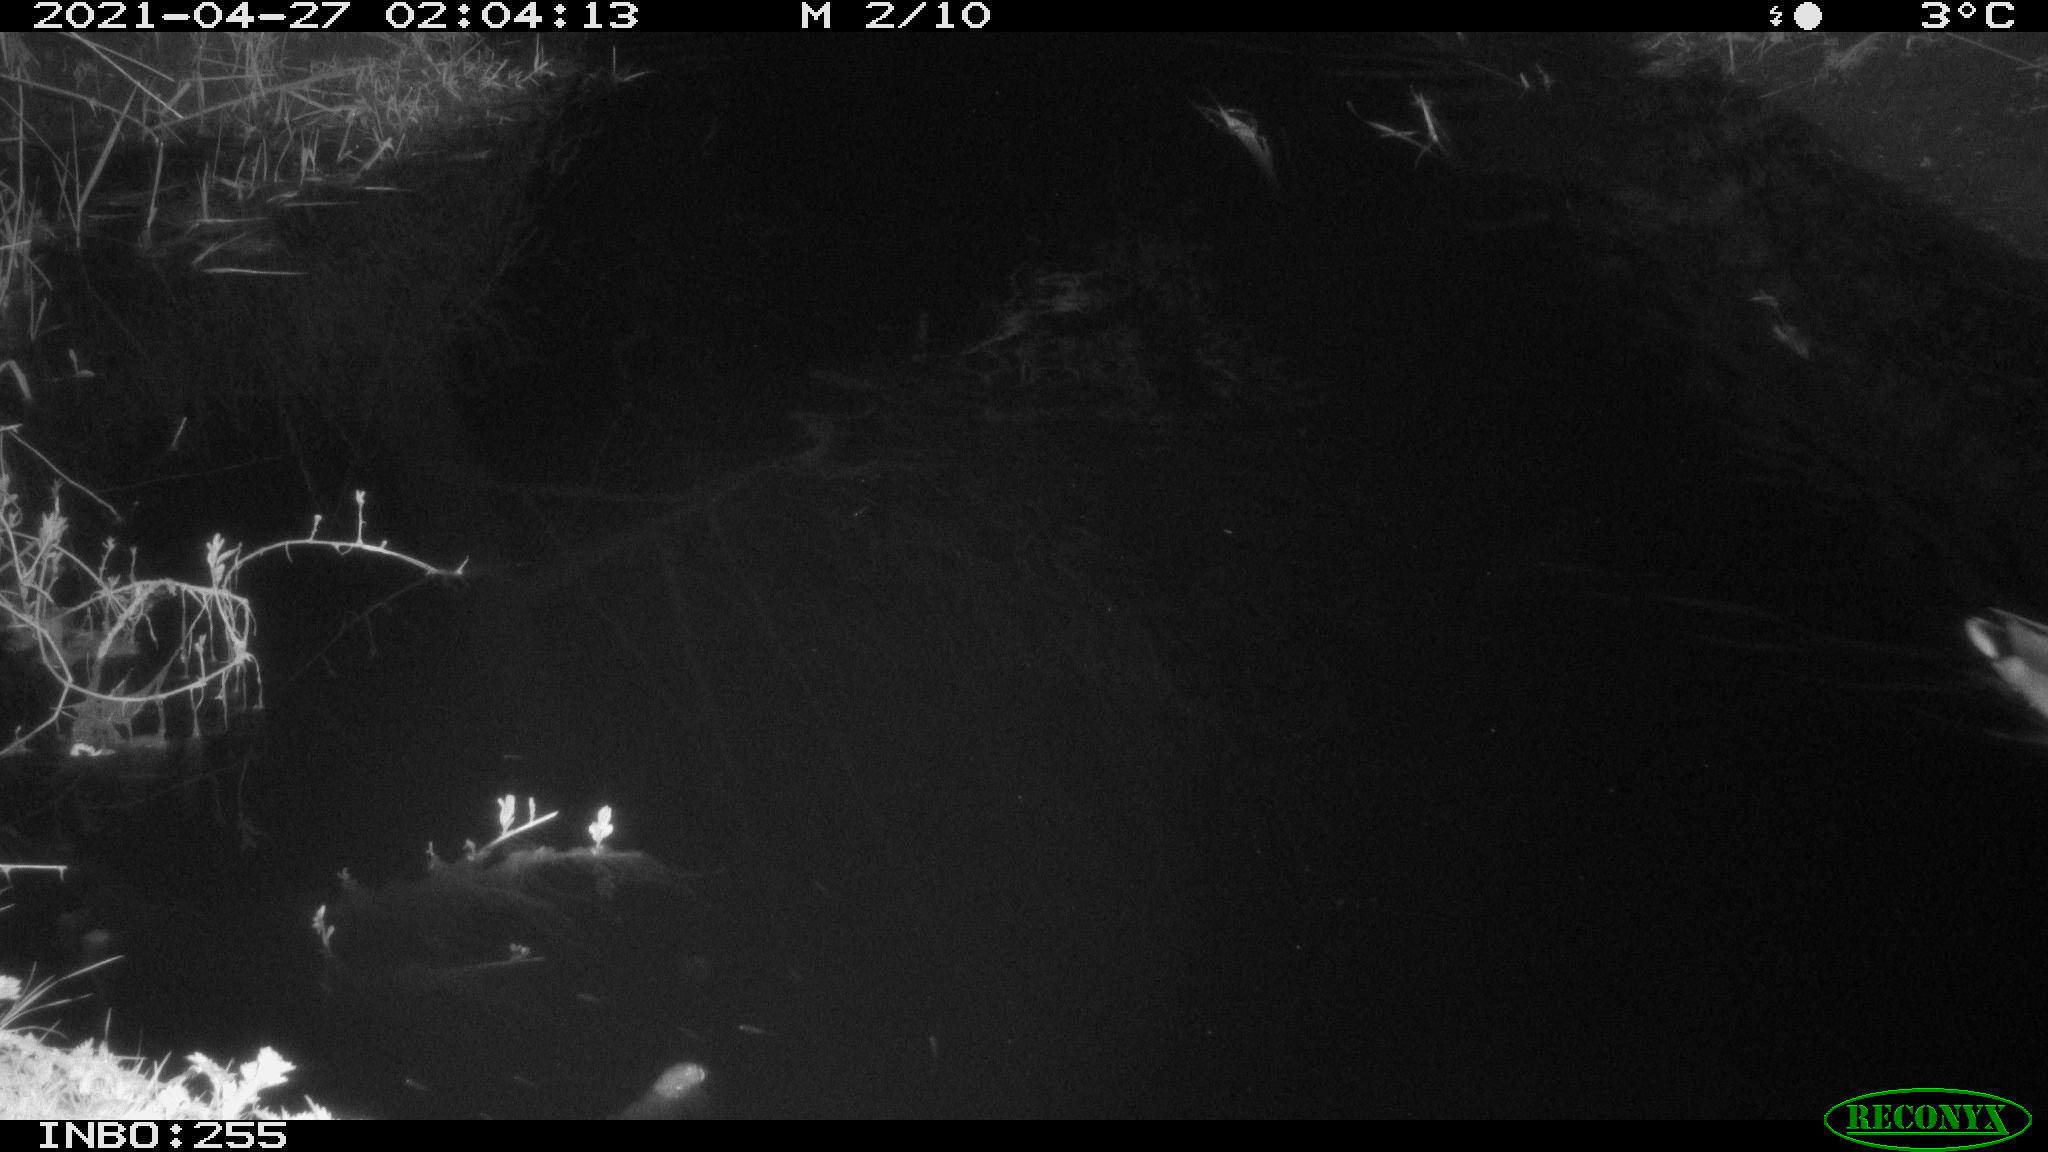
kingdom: Animalia
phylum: Chordata
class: Aves
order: Anseriformes
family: Anatidae
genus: Anas
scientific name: Anas platyrhynchos
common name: Mallard
